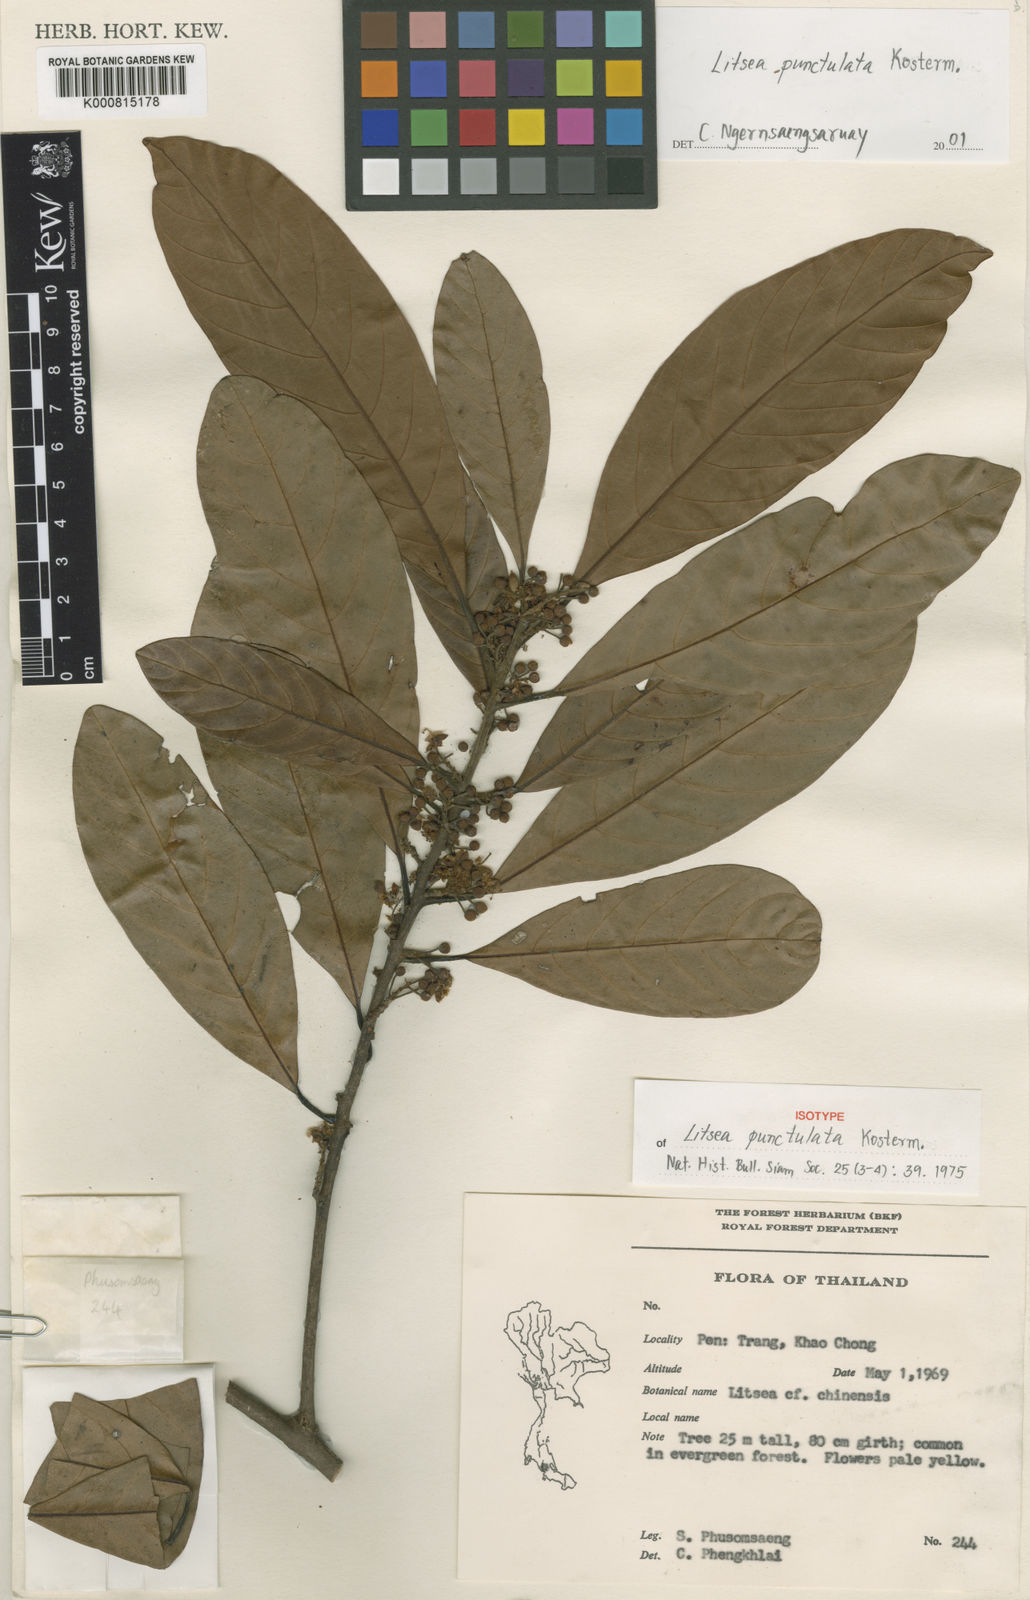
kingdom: Plantae
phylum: Tracheophyta
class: Magnoliopsida
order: Laurales
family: Lauraceae
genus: Litsea
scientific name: Litsea punctulata
